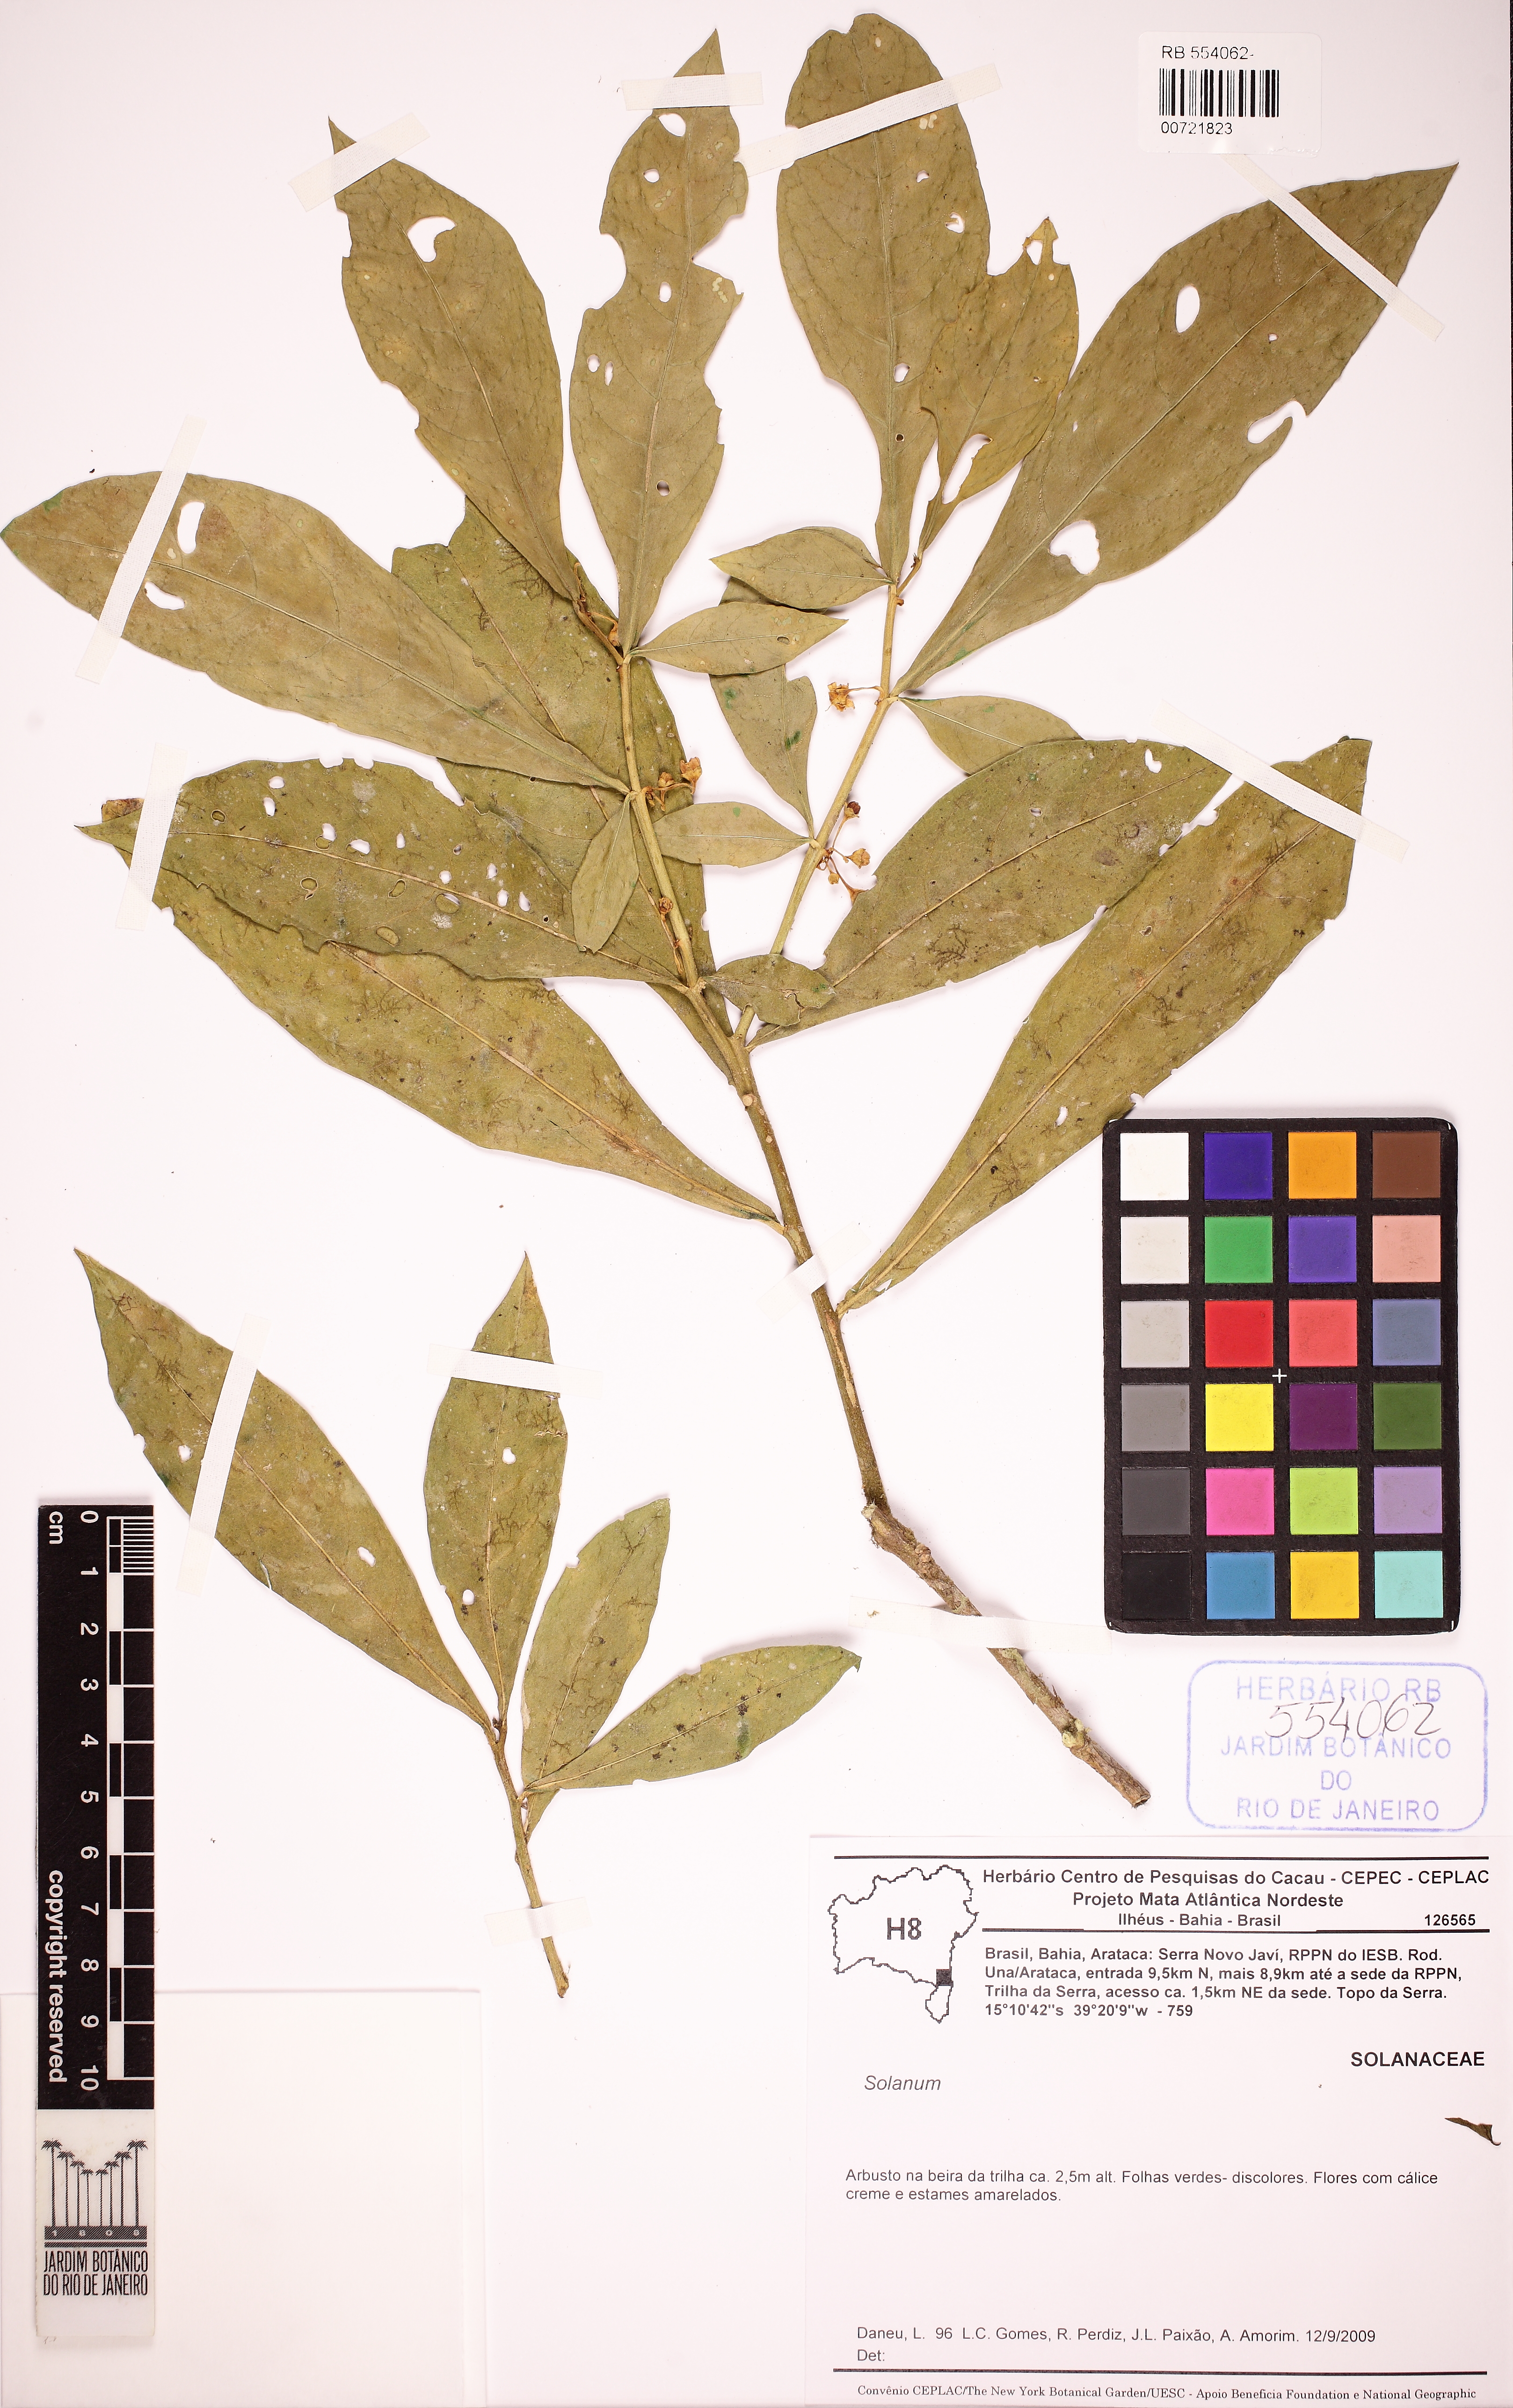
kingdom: Plantae
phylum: Tracheophyta
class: Magnoliopsida
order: Solanales
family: Solanaceae
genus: Solanum
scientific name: Solanum amorimii
